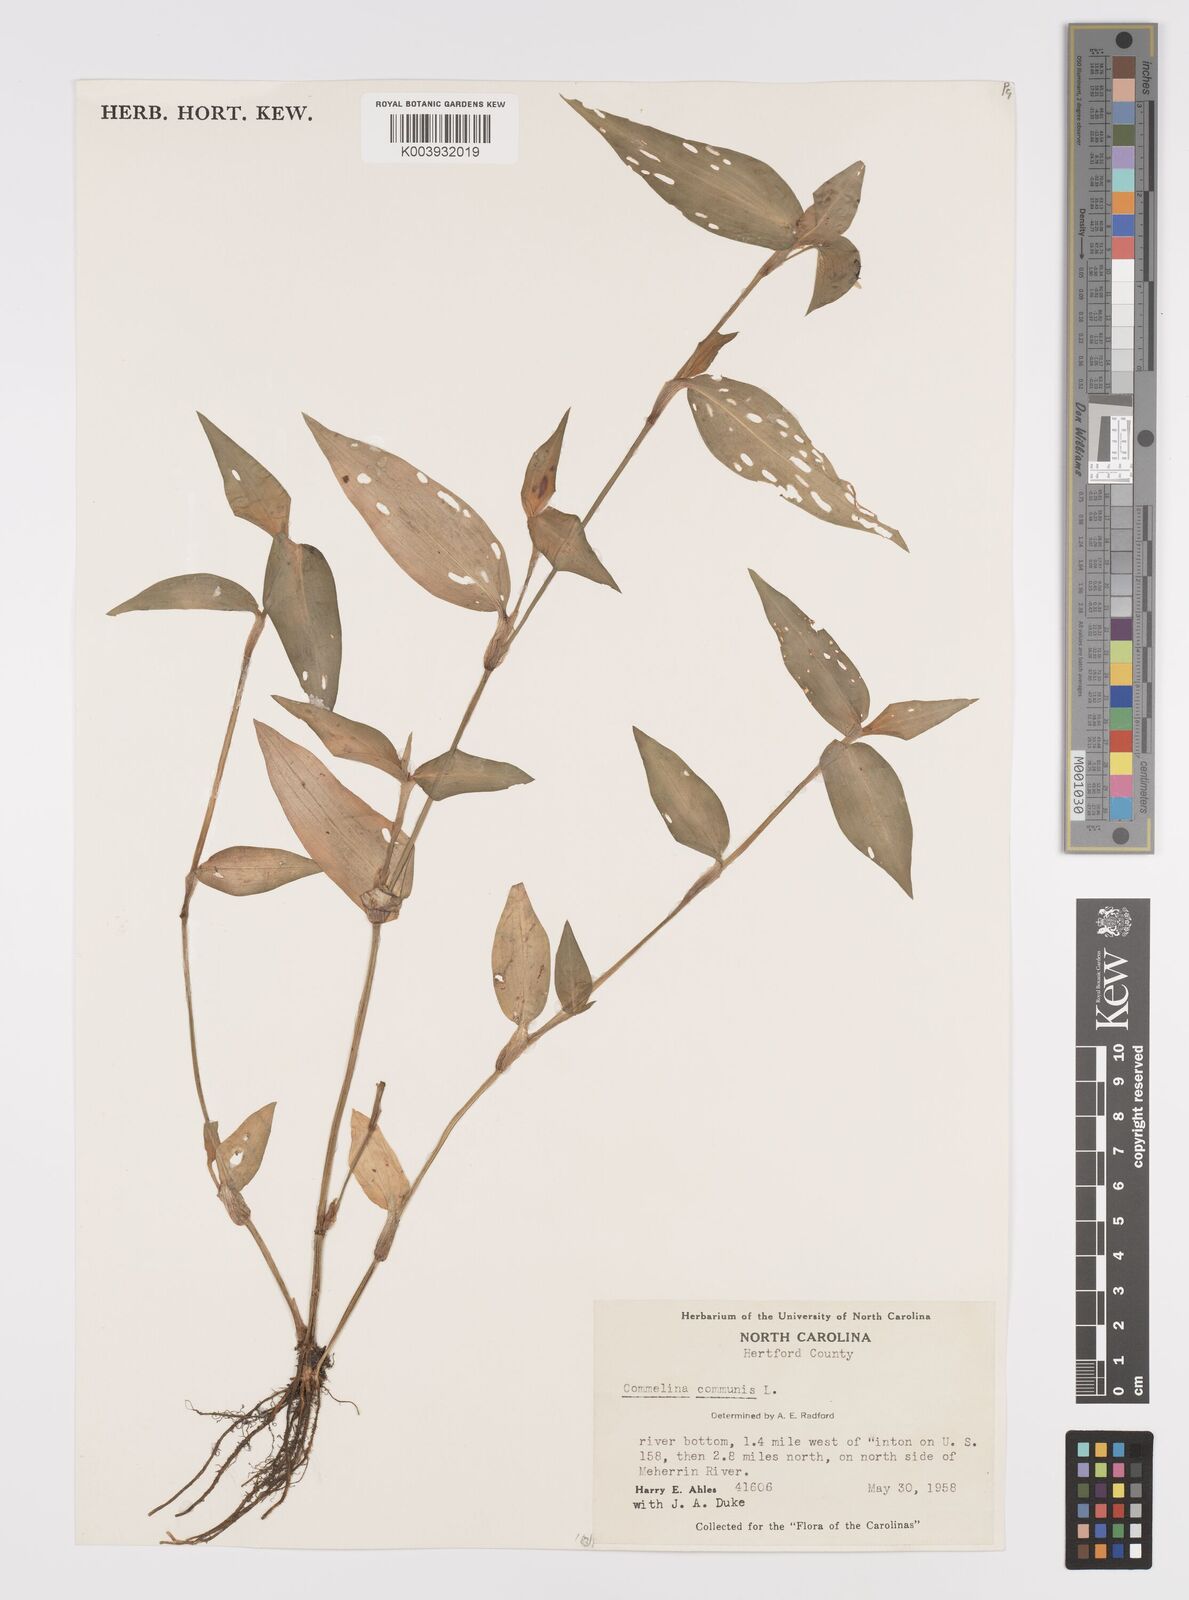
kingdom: Plantae
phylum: Tracheophyta
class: Liliopsida
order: Commelinales
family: Commelinaceae
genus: Commelina
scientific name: Commelina communis
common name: Asiatic dayflower
